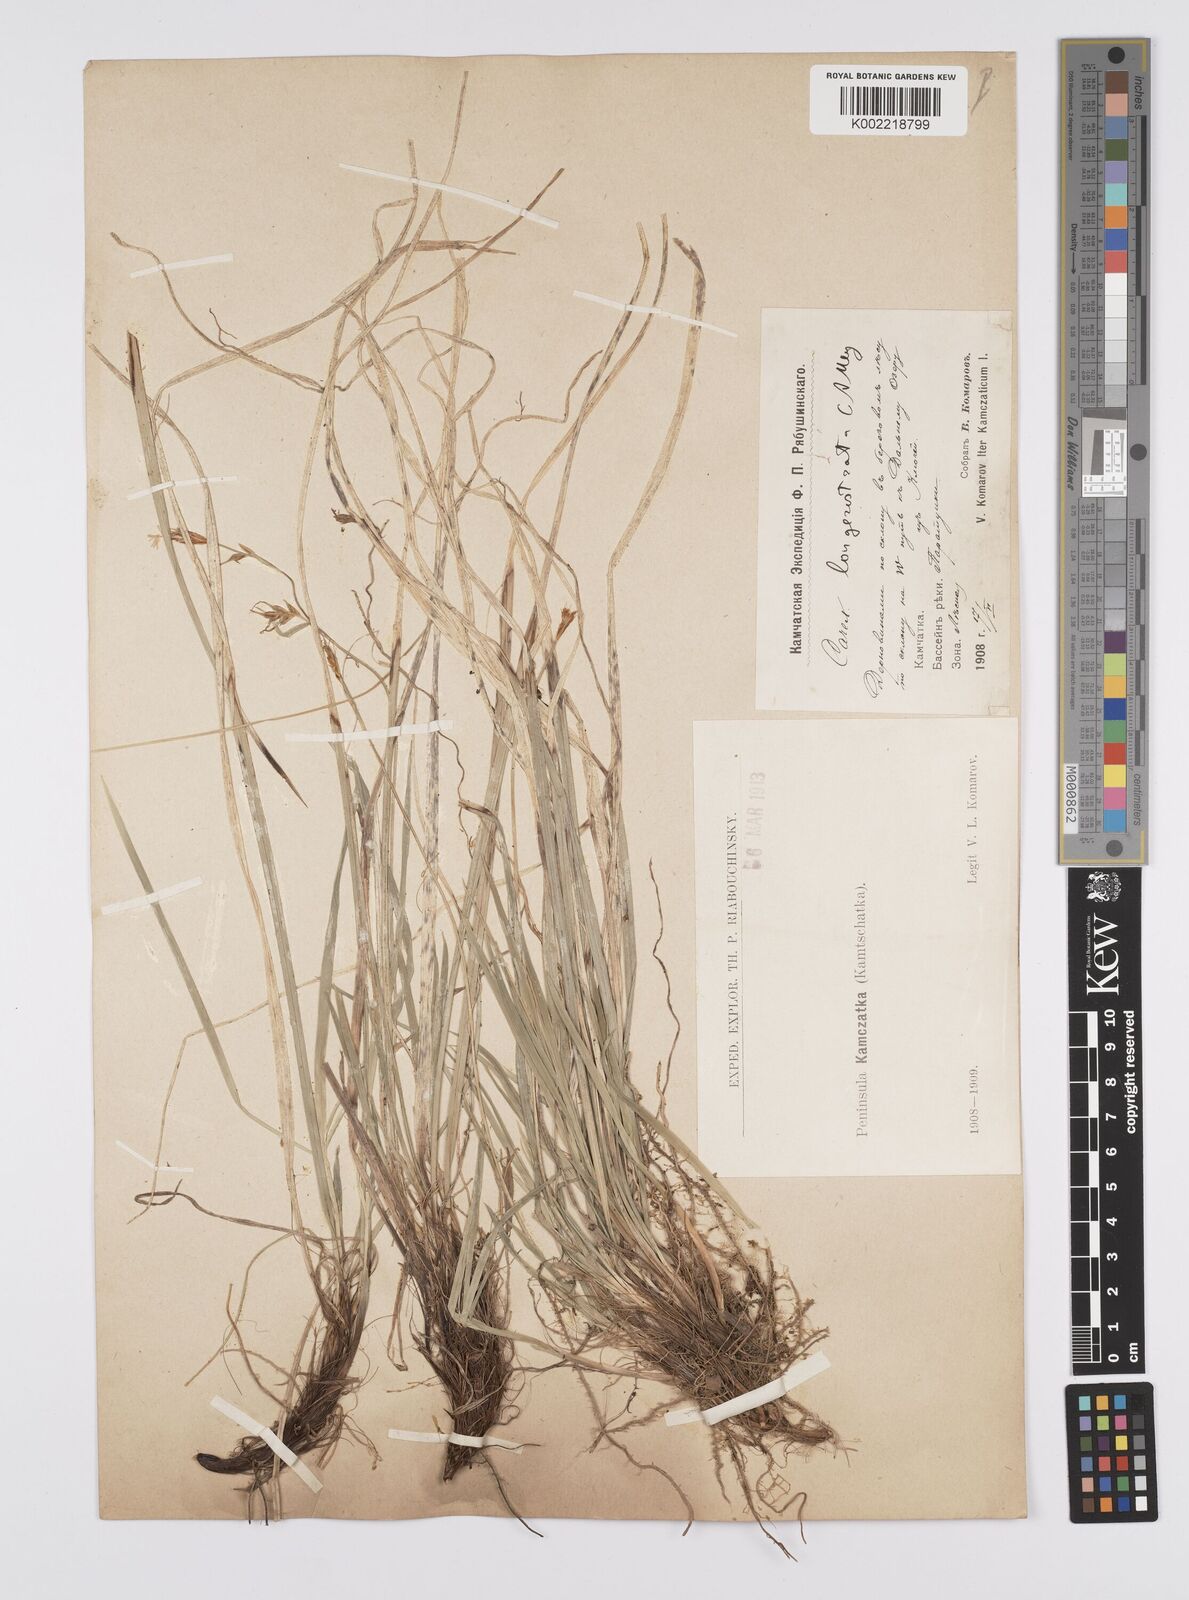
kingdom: Plantae
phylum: Tracheophyta
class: Liliopsida
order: Poales
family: Cyperaceae
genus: Carex
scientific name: Carex longerostrata
